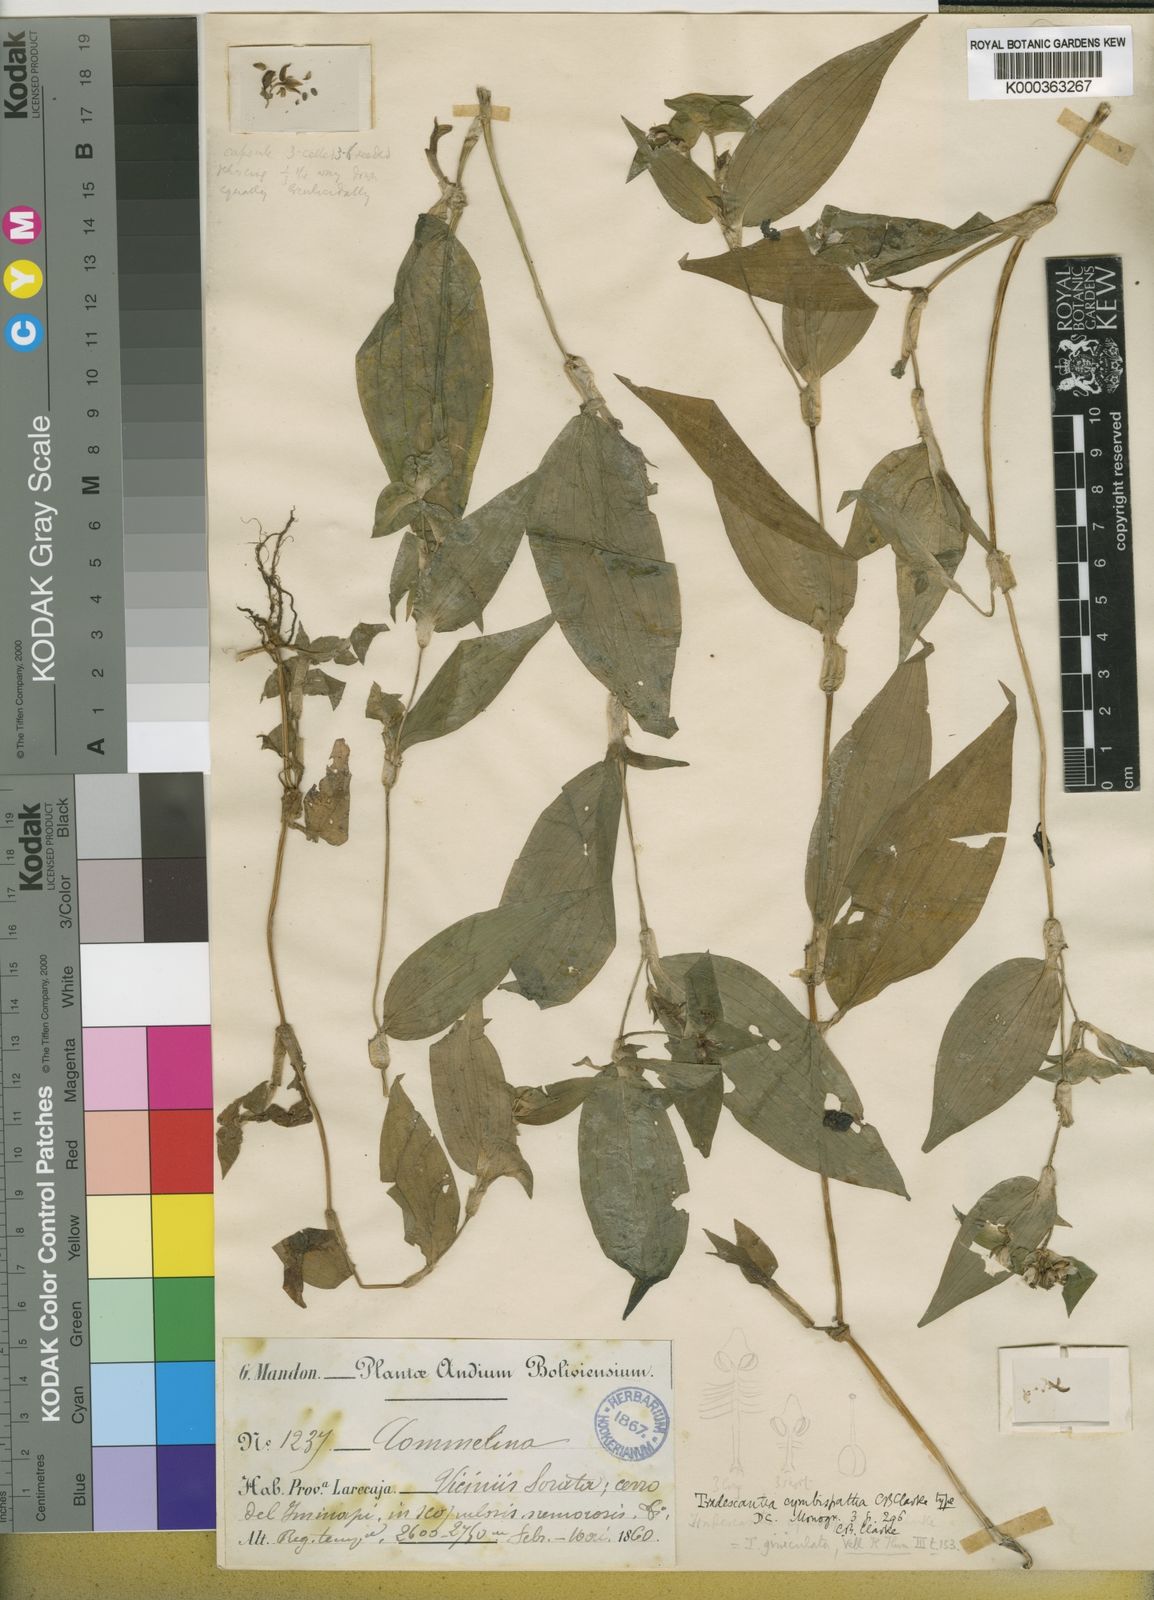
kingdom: Plantae
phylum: Tracheophyta
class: Liliopsida
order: Commelinales
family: Commelinaceae
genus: Tradescantia
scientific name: Tradescantia praetermissa
